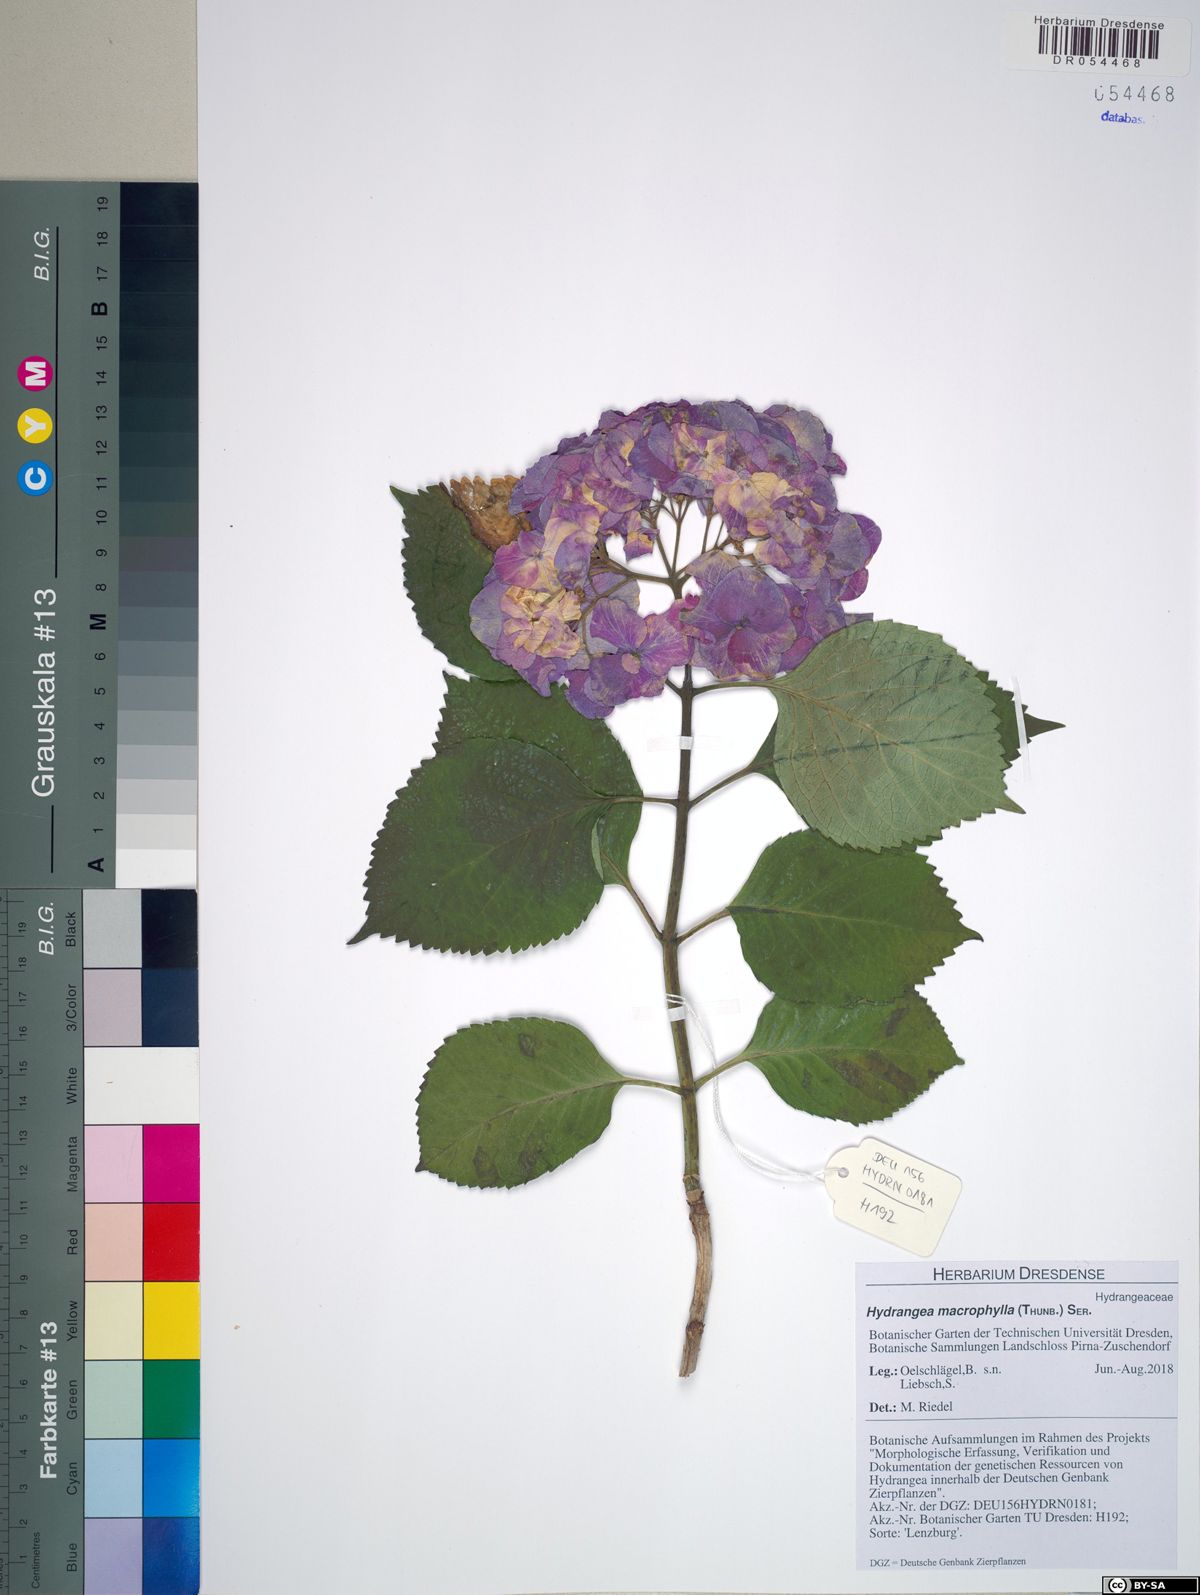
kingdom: Plantae
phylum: Tracheophyta
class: Magnoliopsida
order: Cornales
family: Hydrangeaceae
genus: Hydrangea
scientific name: Hydrangea macrophylla
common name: Hydrangea
